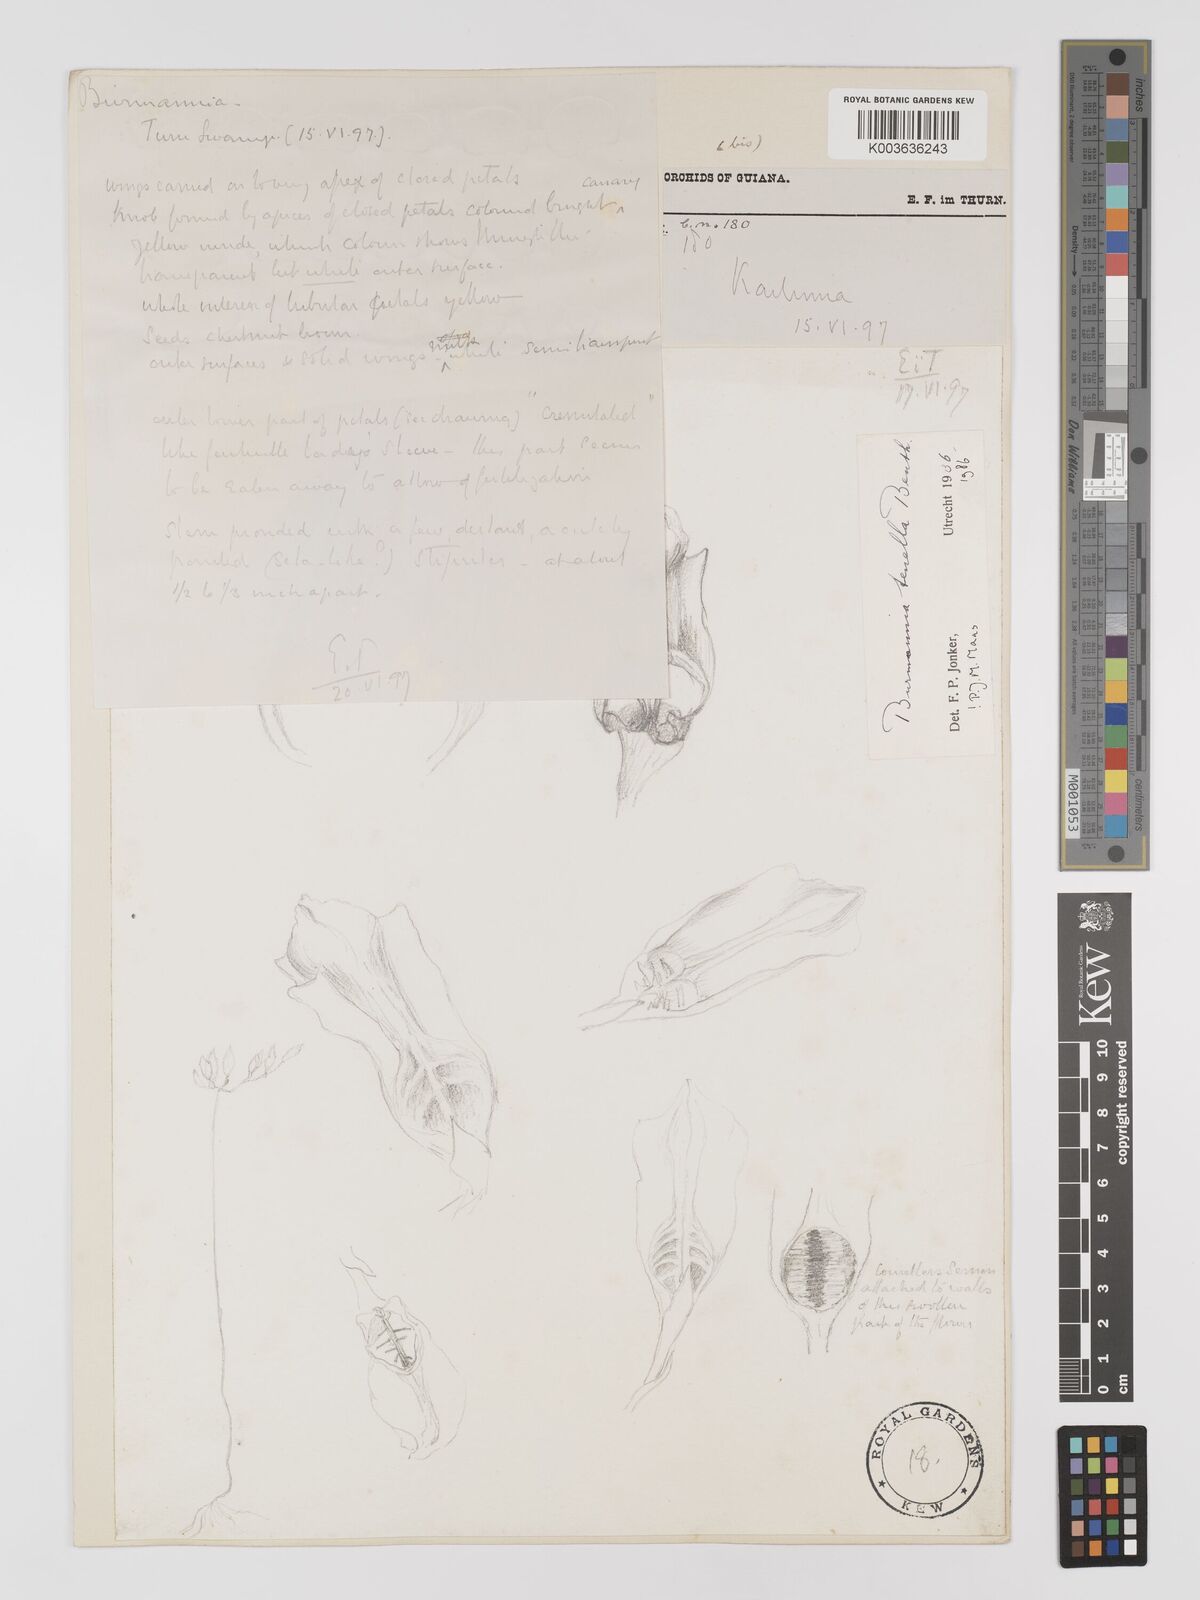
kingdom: Plantae
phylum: Tracheophyta
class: Liliopsida
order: Dioscoreales
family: Burmanniaceae
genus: Burmannia
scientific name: Burmannia tenella
